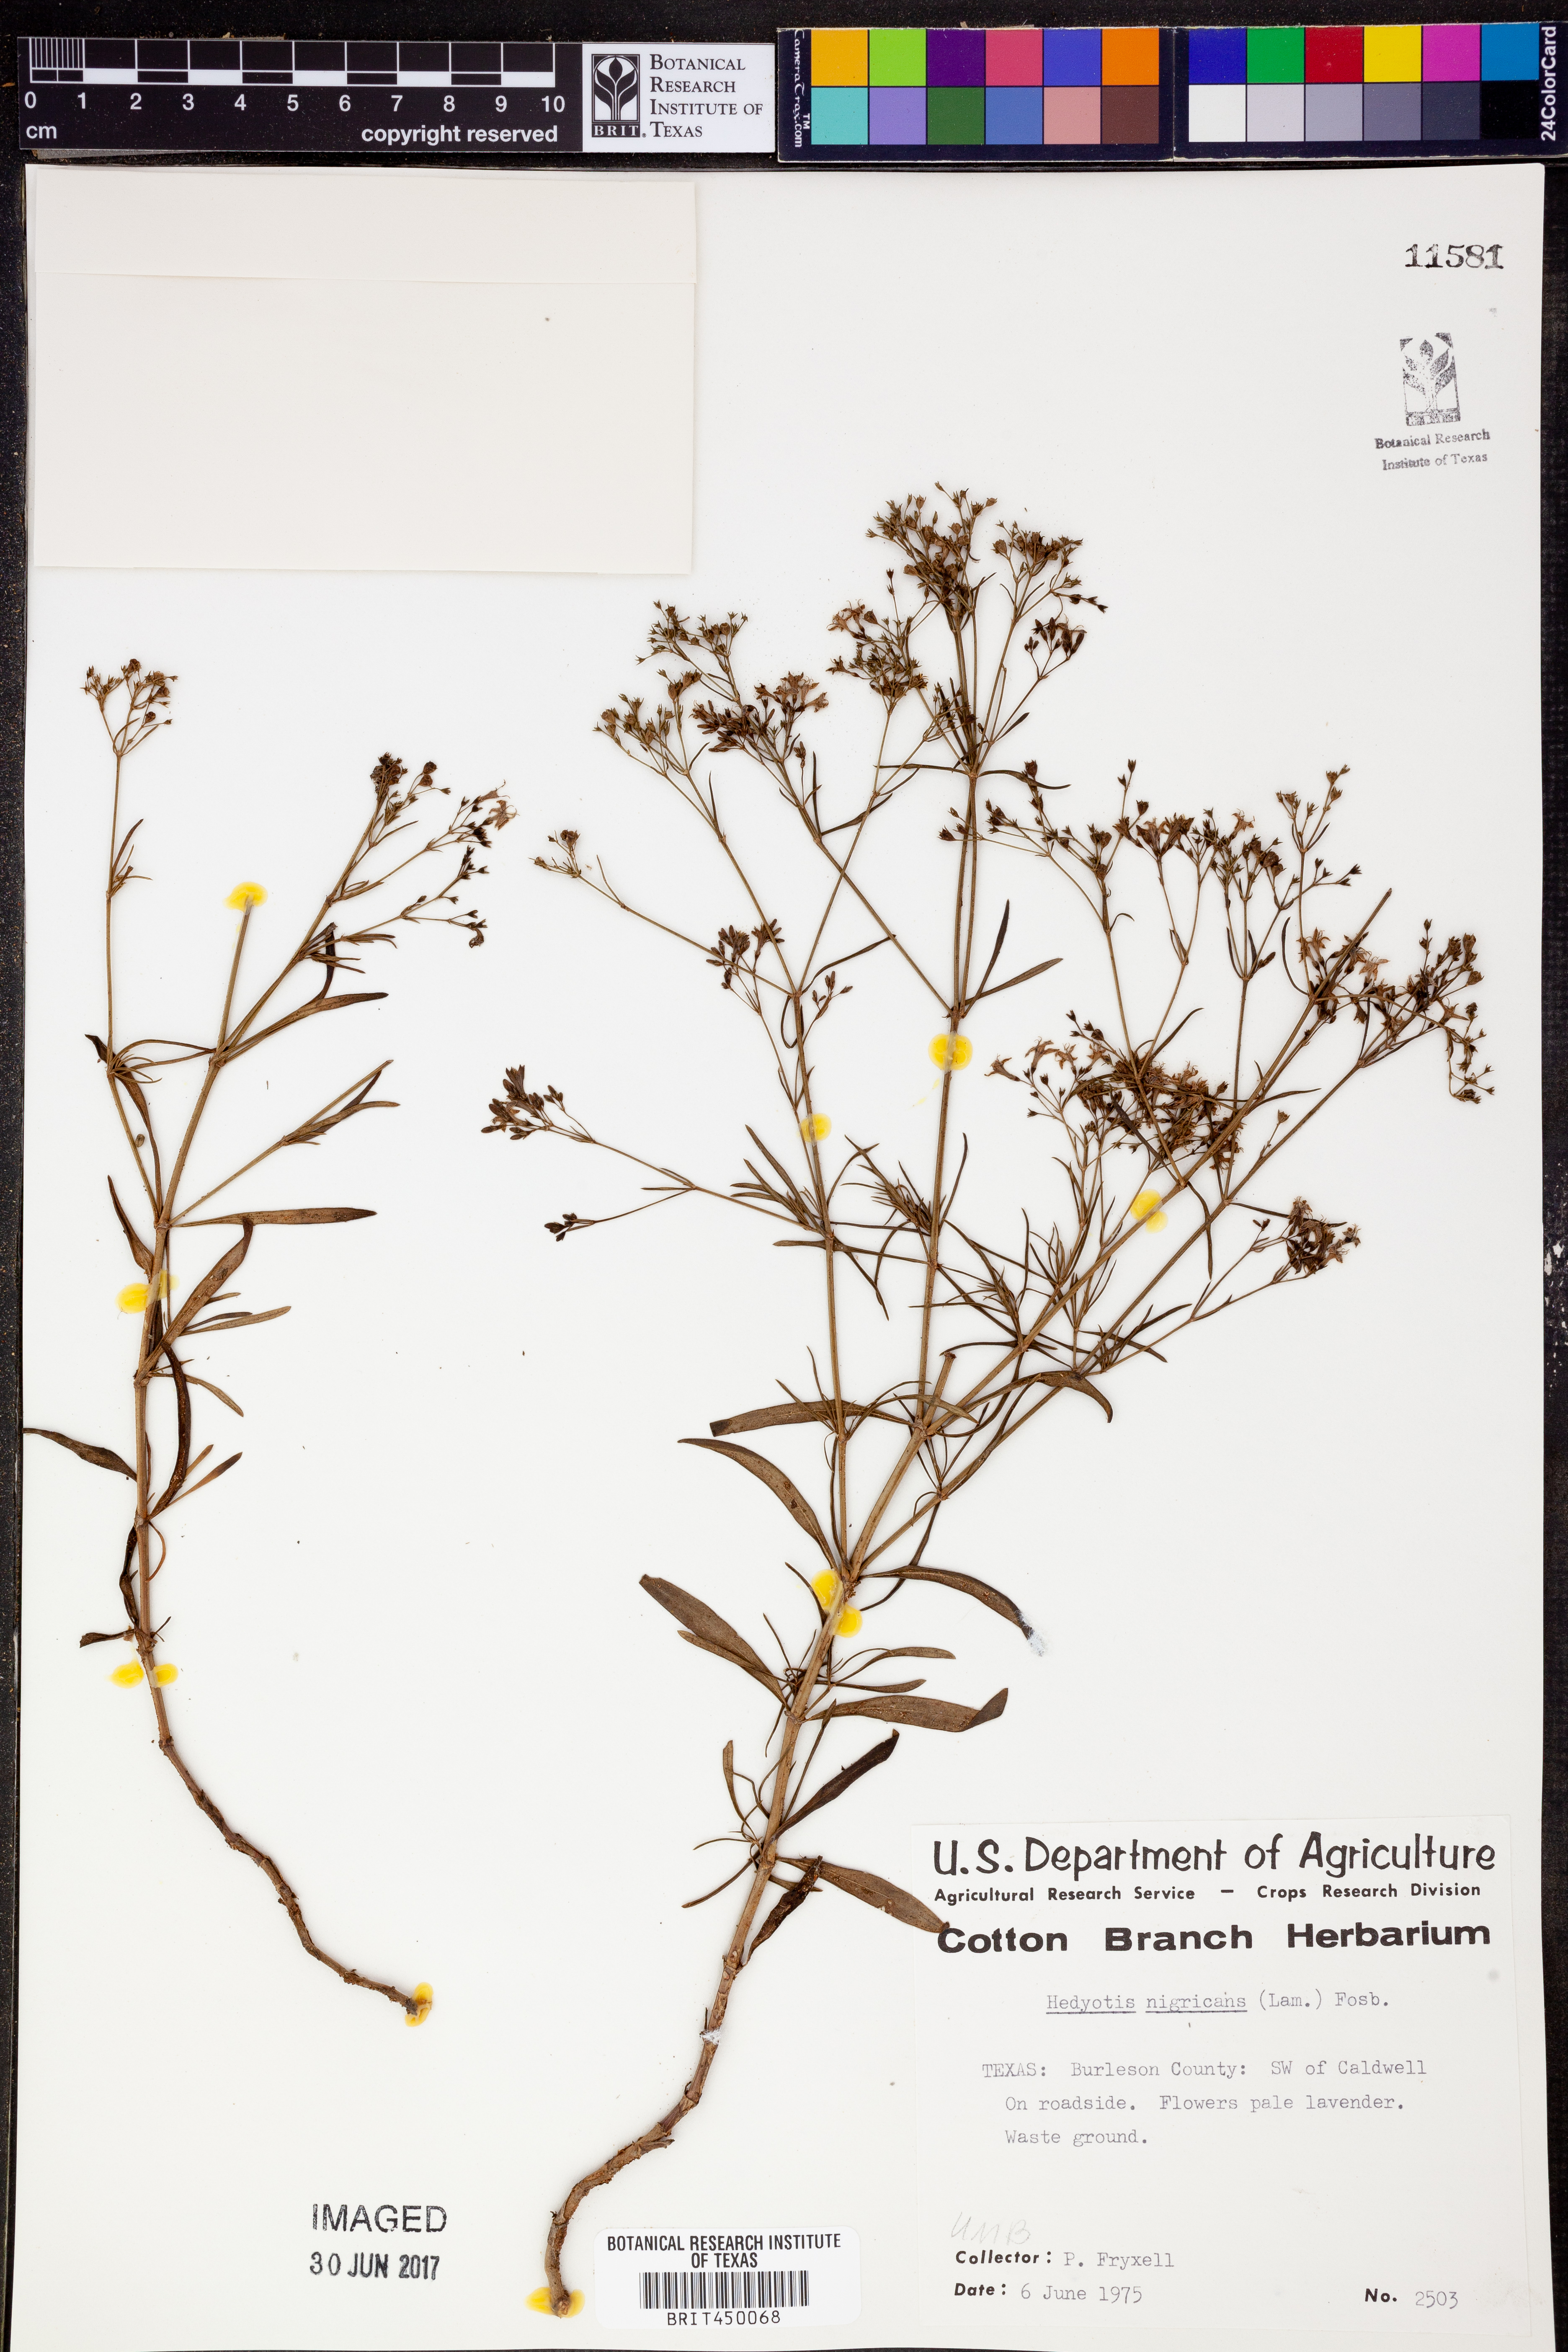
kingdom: Plantae
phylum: Tracheophyta
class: Magnoliopsida
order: Gentianales
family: Rubiaceae
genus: Stenaria
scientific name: Stenaria nigricans
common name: Diamondflowers
